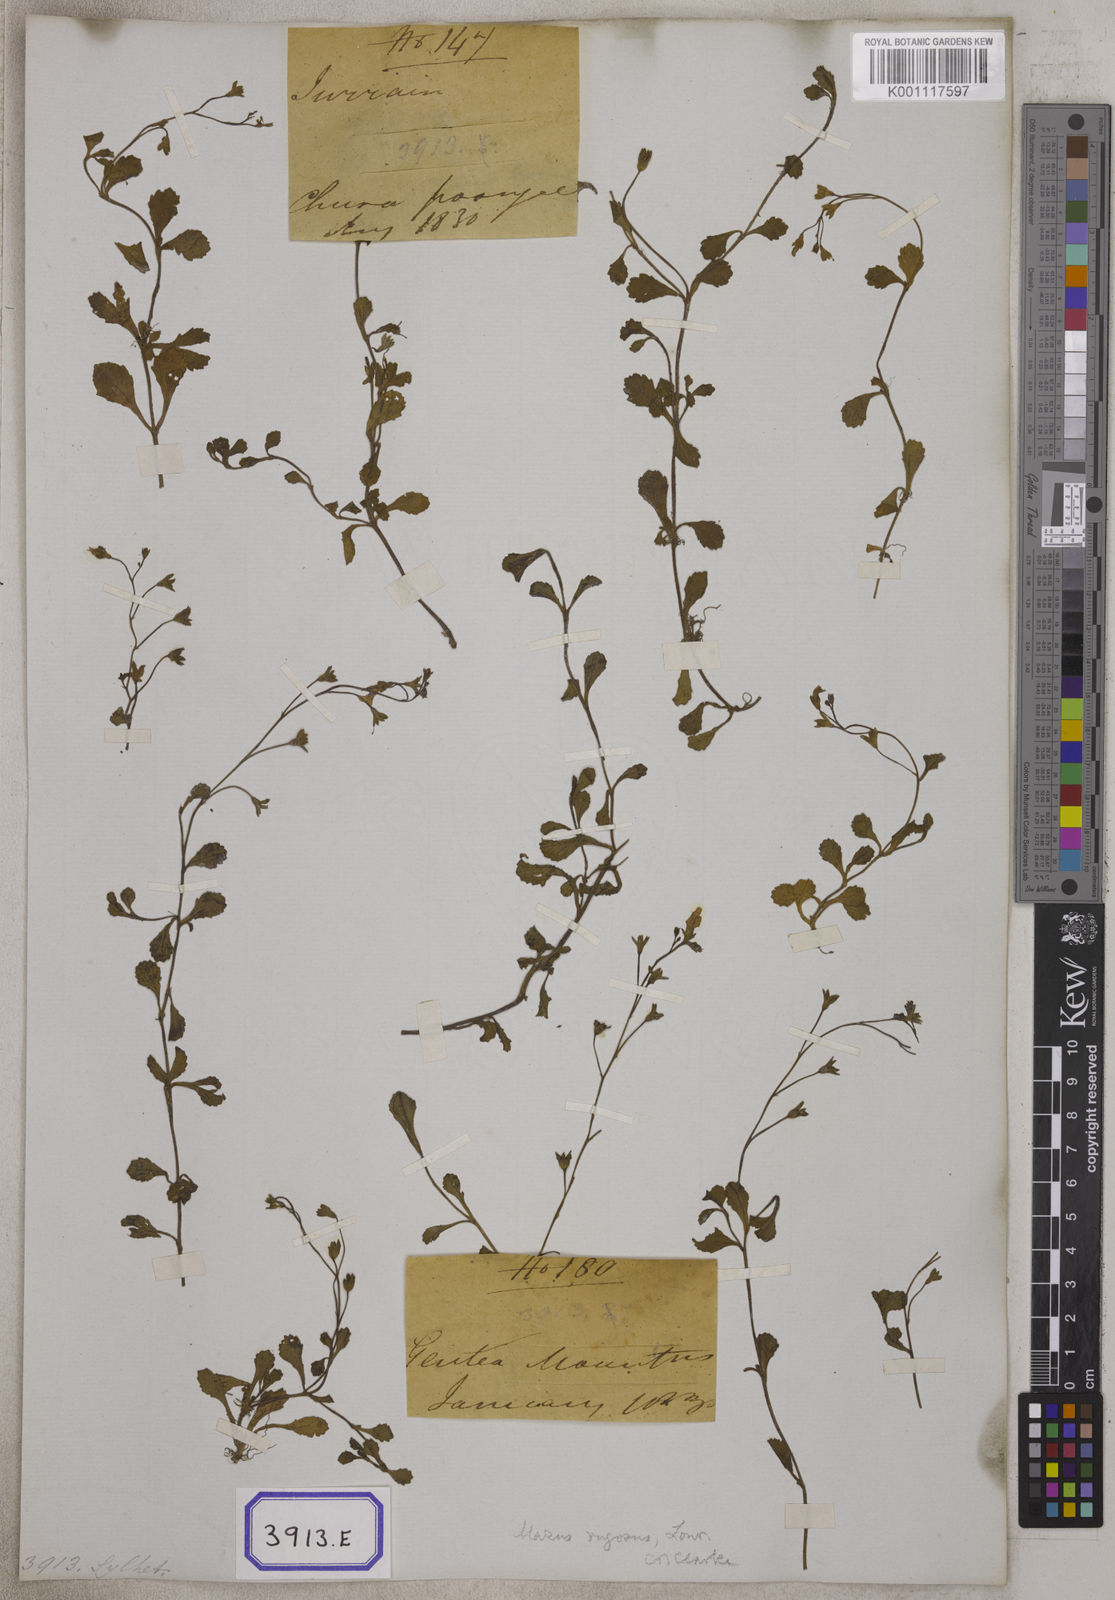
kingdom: Plantae
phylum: Tracheophyta
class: Magnoliopsida
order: Lamiales
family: Mazaceae
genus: Mazus
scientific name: Mazus pumilus
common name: Japanese mazus
